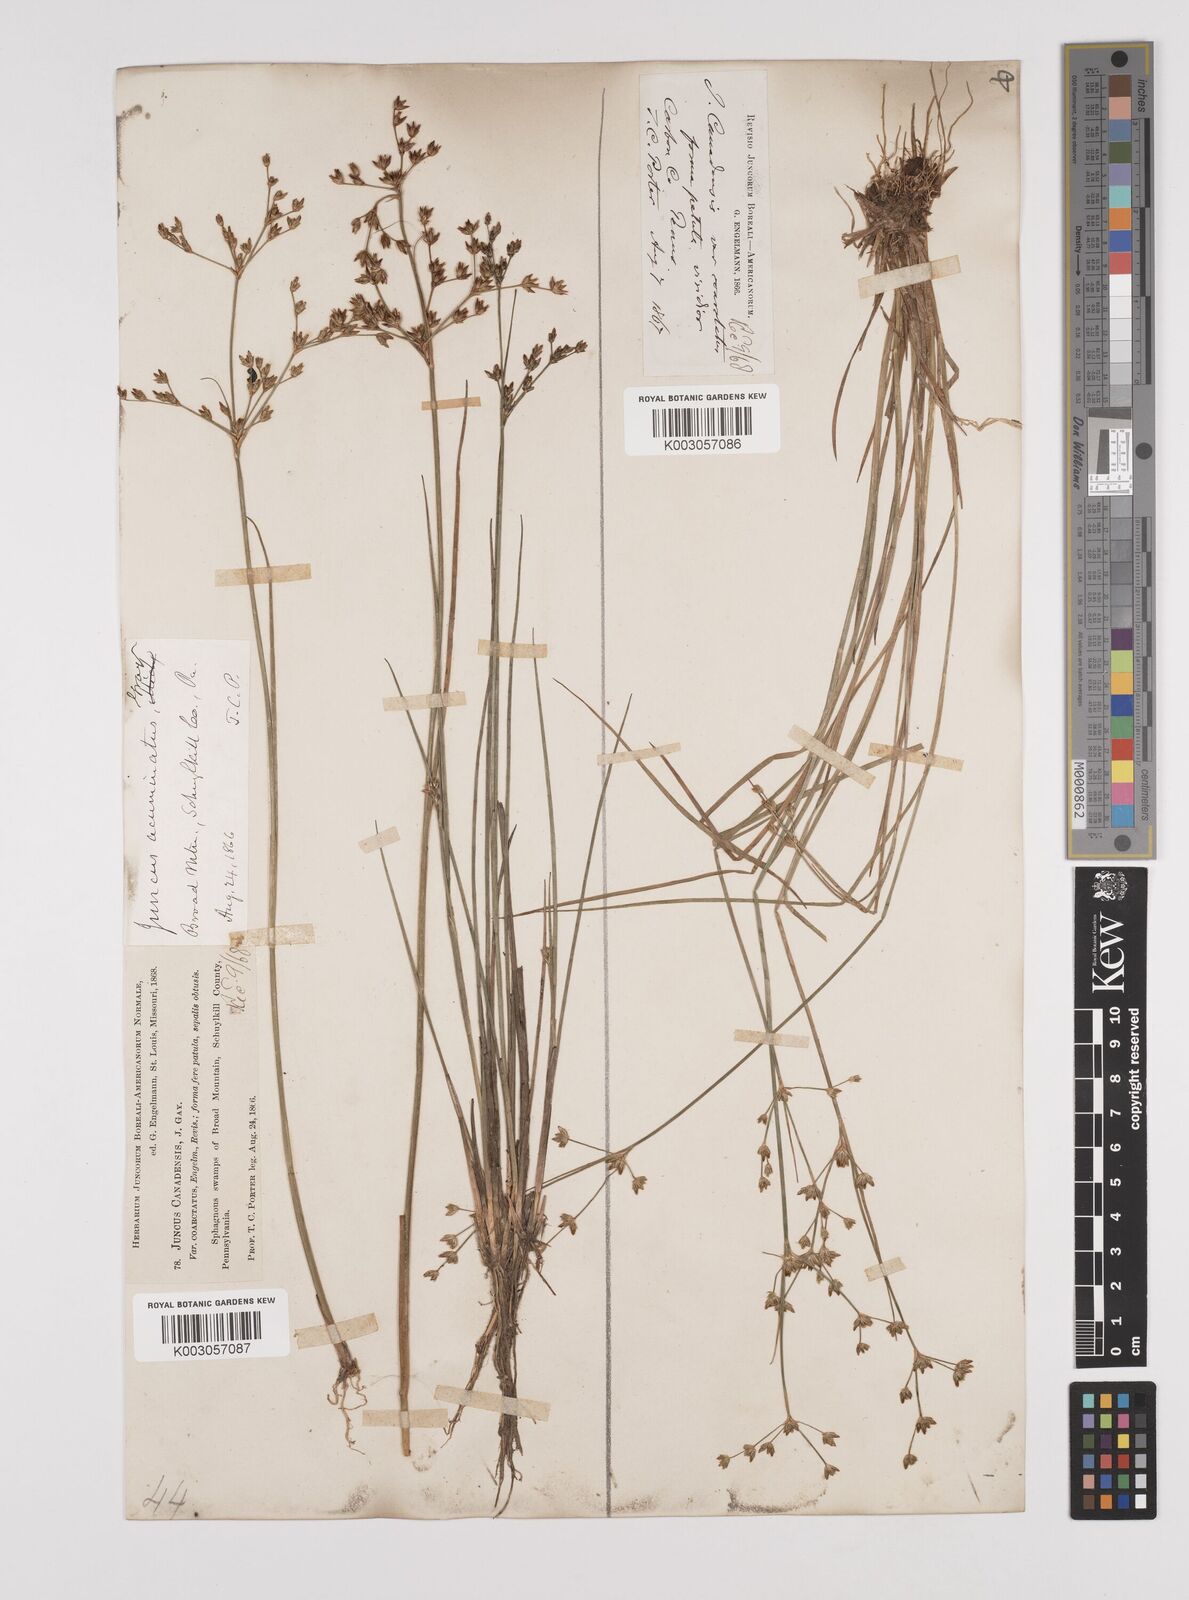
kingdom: Plantae
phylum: Tracheophyta
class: Liliopsida
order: Poales
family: Juncaceae
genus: Juncus
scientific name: Juncus canadensis
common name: Canada rush
